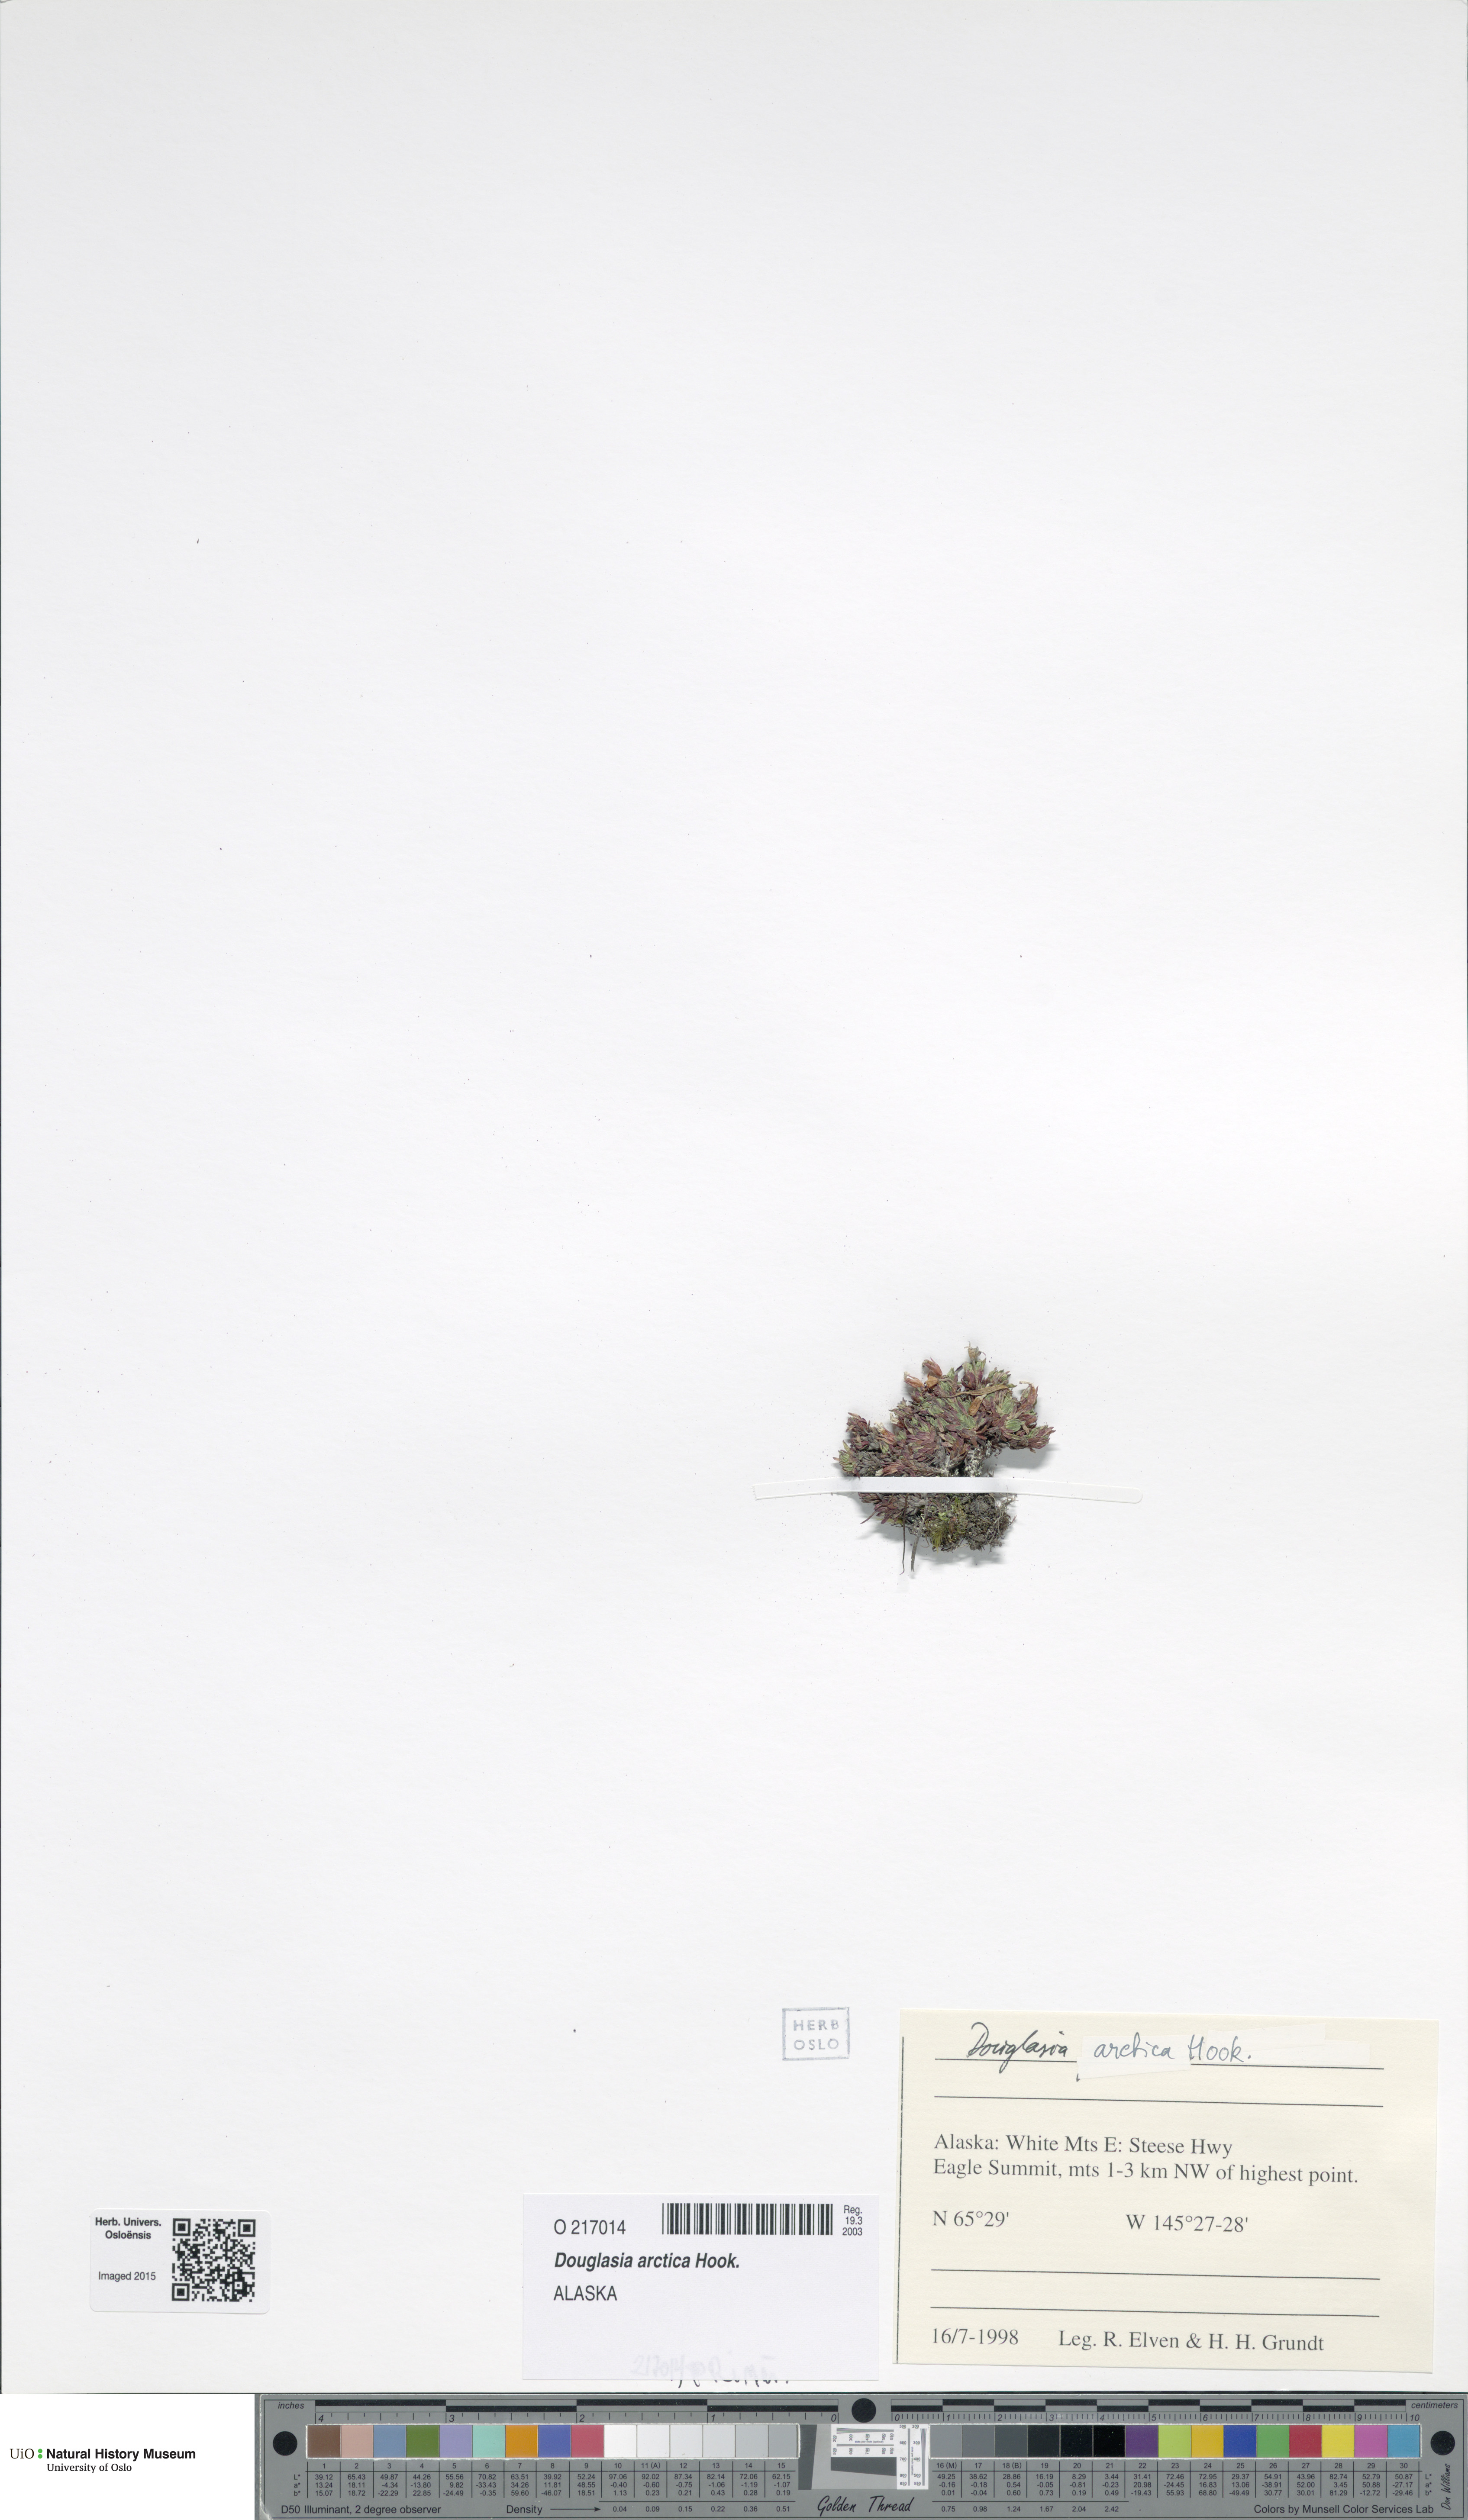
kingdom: Plantae
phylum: Tracheophyta
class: Magnoliopsida
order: Ericales
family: Primulaceae
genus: Androsace
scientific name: Androsace americana
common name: Mackenzie river dwarf-primrose
